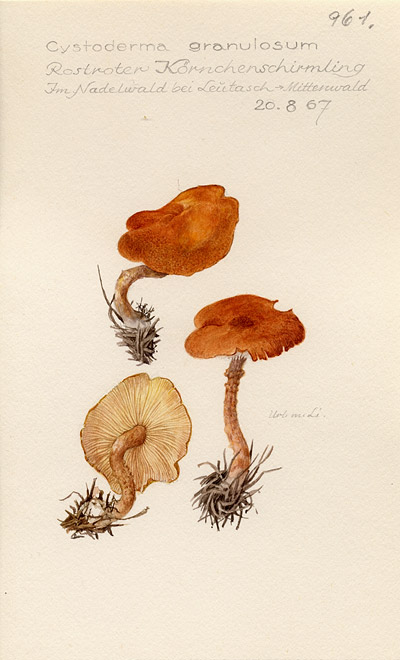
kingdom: Fungi
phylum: Basidiomycota
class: Agaricomycetes
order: Agaricales
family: Agaricaceae
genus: Cystodermella
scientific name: Cystodermella granulosa
